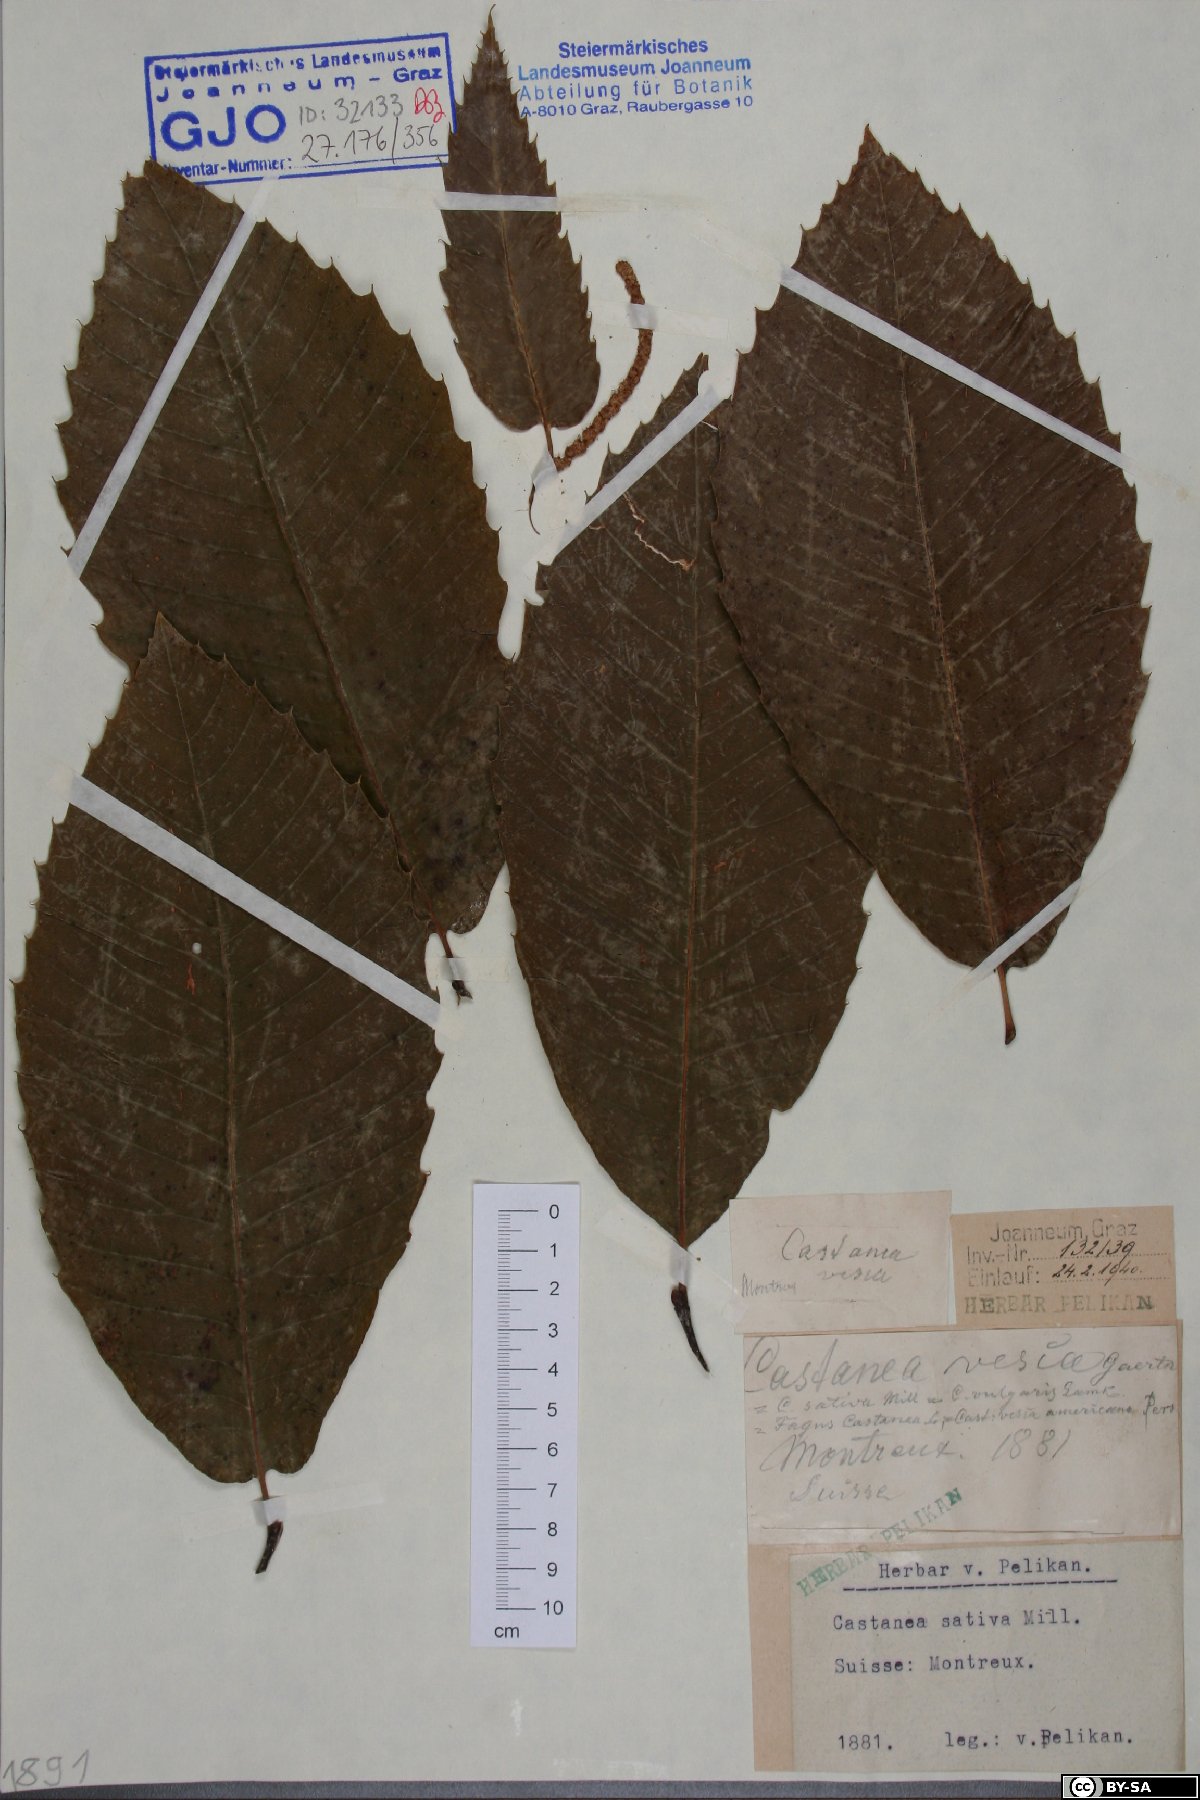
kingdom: Plantae
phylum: Tracheophyta
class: Magnoliopsida
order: Fagales
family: Fagaceae
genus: Castanea
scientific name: Castanea sativa
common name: Sweet chestnut
